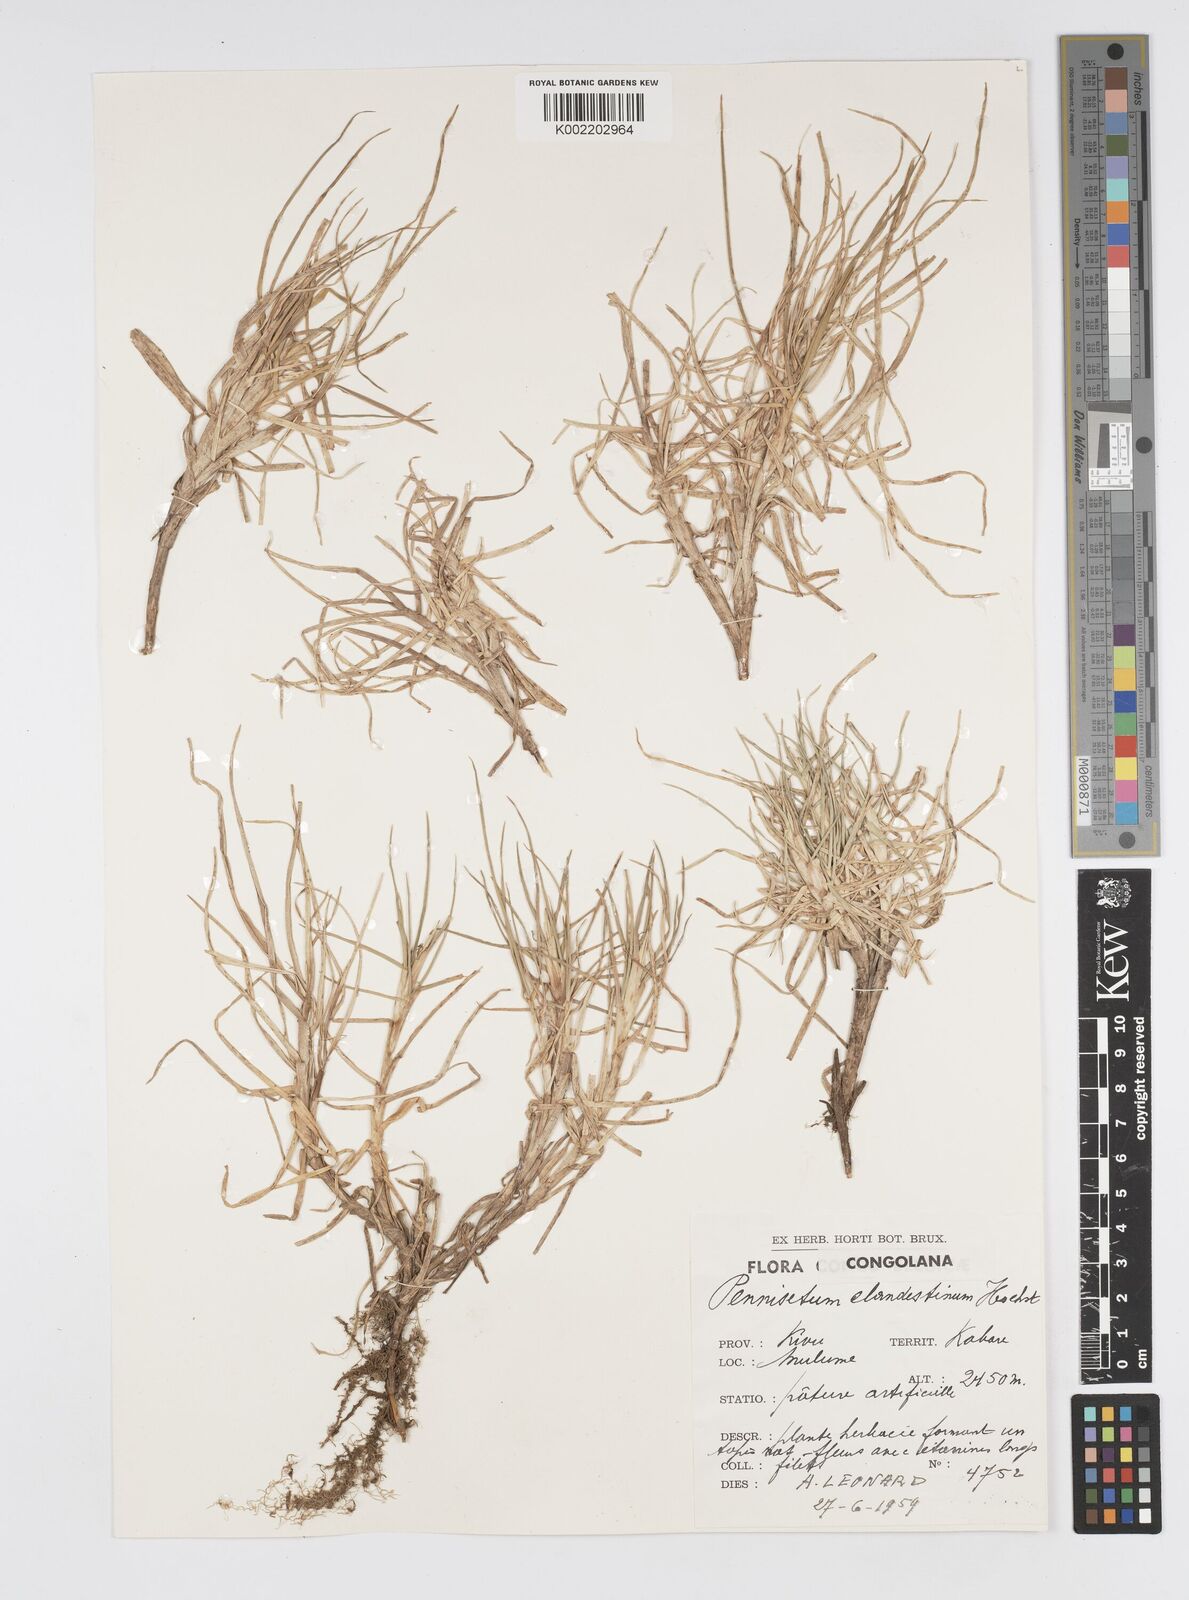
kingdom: Plantae
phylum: Tracheophyta
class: Liliopsida
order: Poales
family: Poaceae
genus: Cenchrus
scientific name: Cenchrus clandestinus
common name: Kikuyugrass
